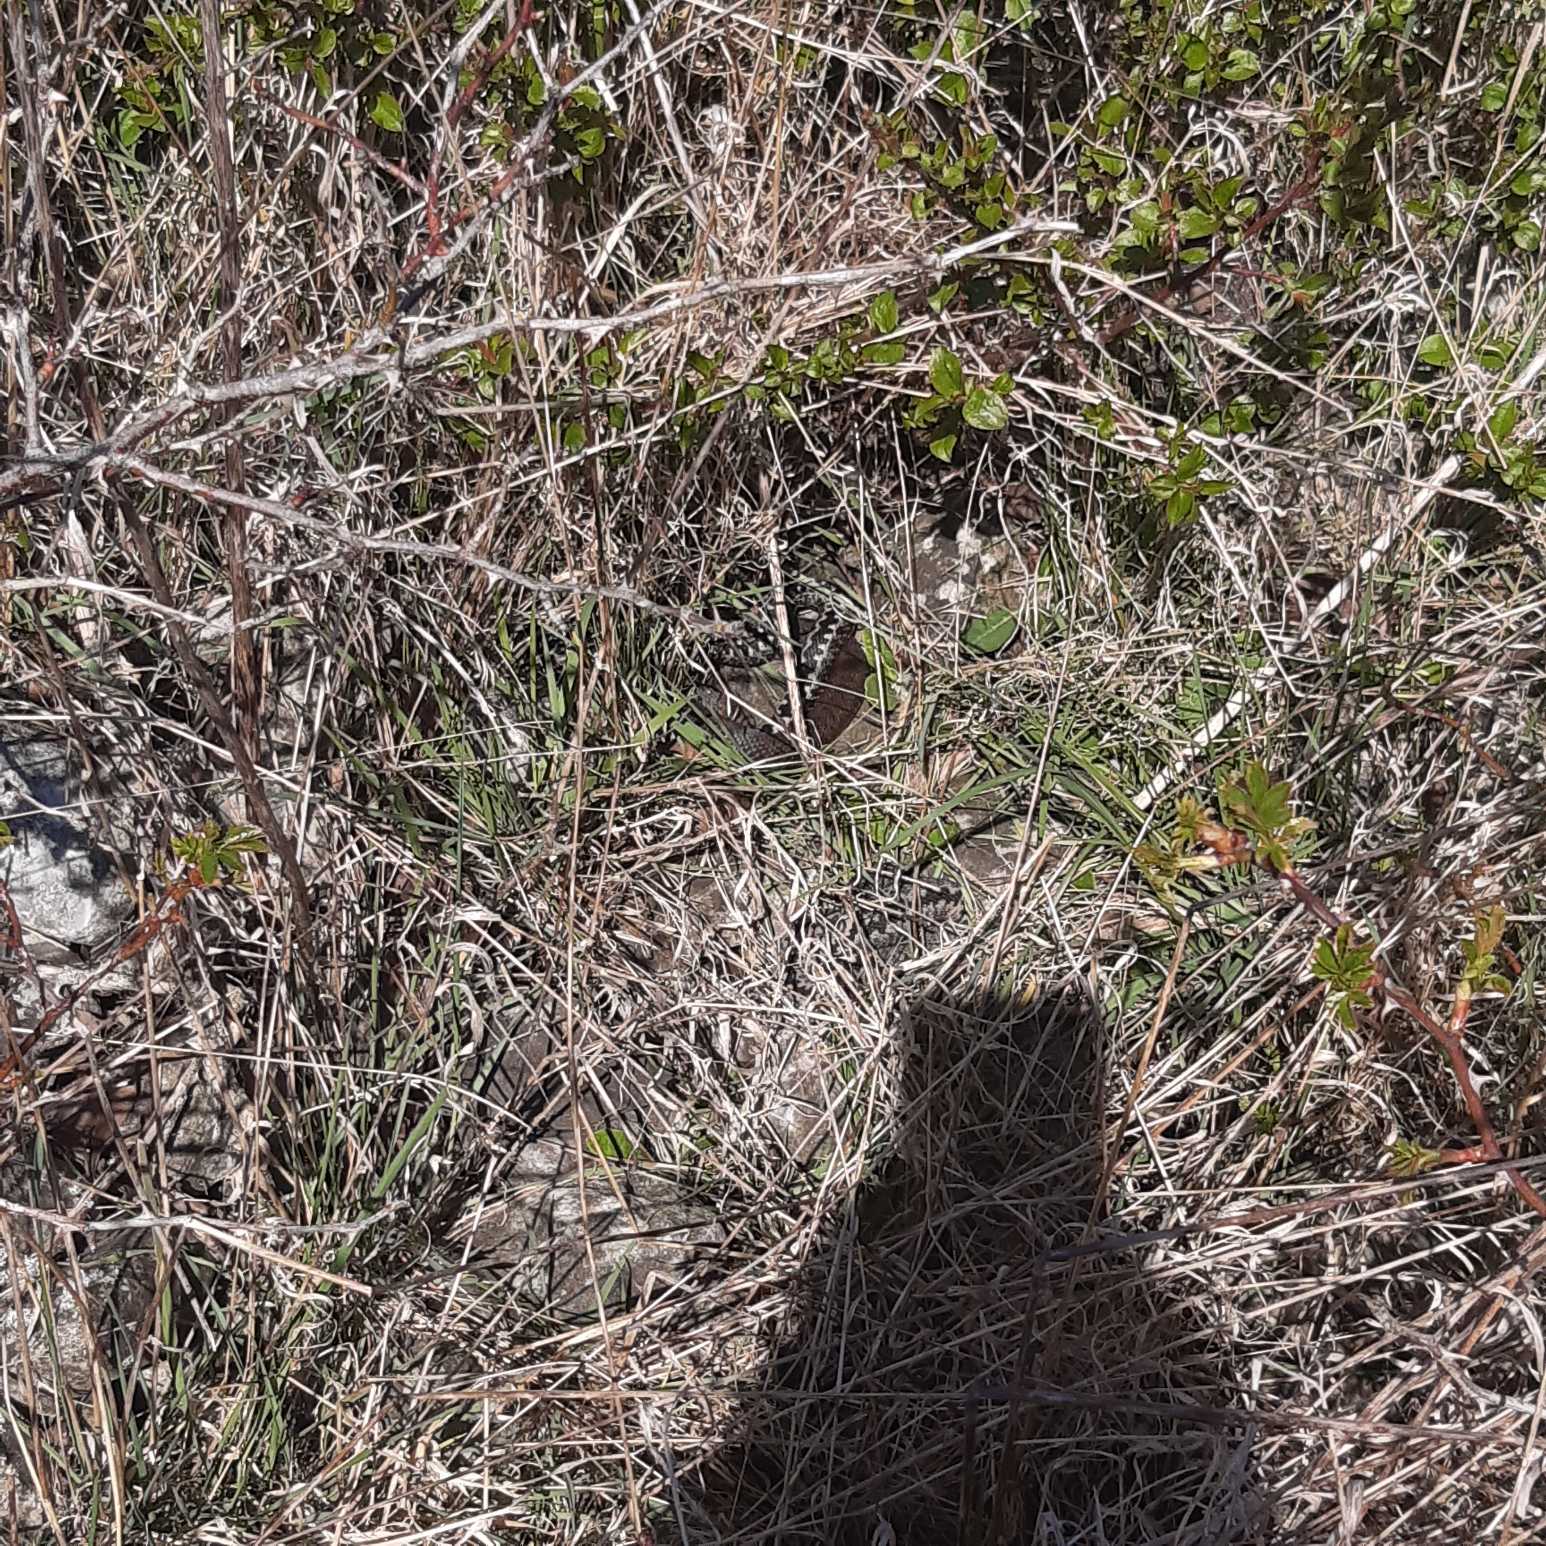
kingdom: Animalia
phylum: Chordata
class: Squamata
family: Viperidae
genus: Vipera
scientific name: Vipera berus
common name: Hugorm
